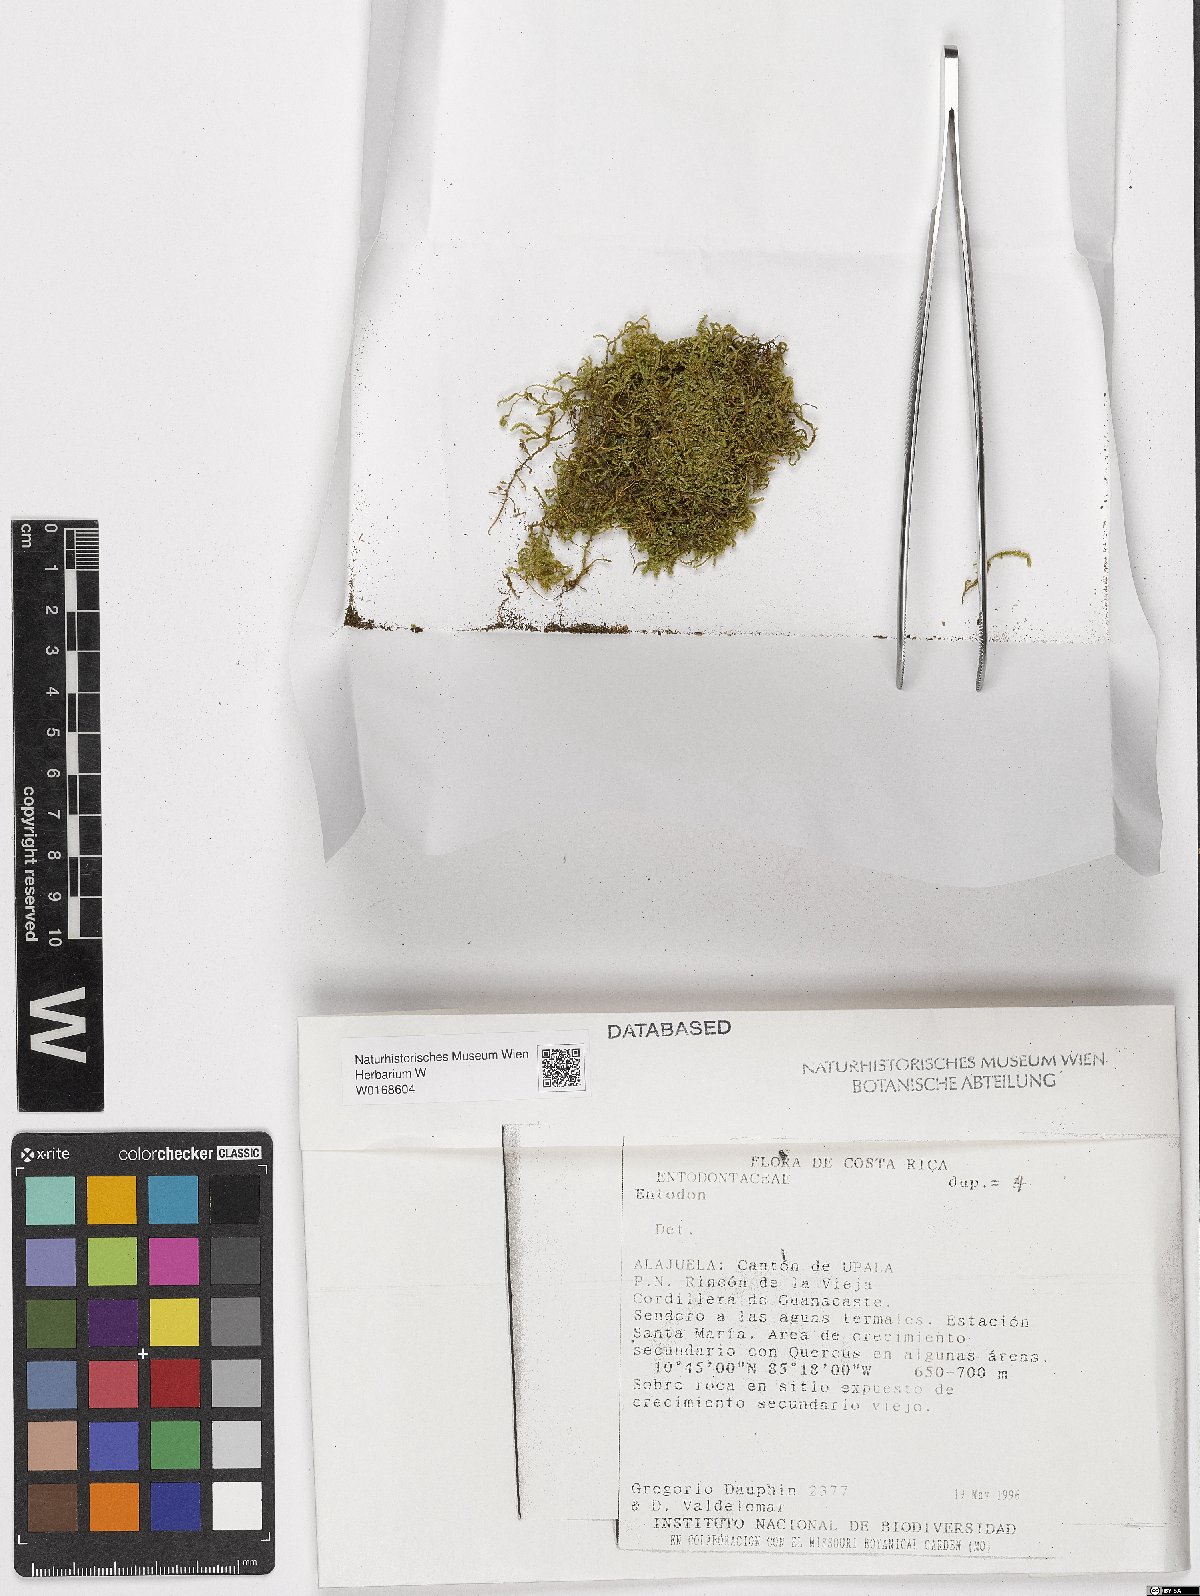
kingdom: Plantae
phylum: Bryophyta
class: Bryopsida
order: Hypnales
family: Entodontaceae
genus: Entodon
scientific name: Entodon
